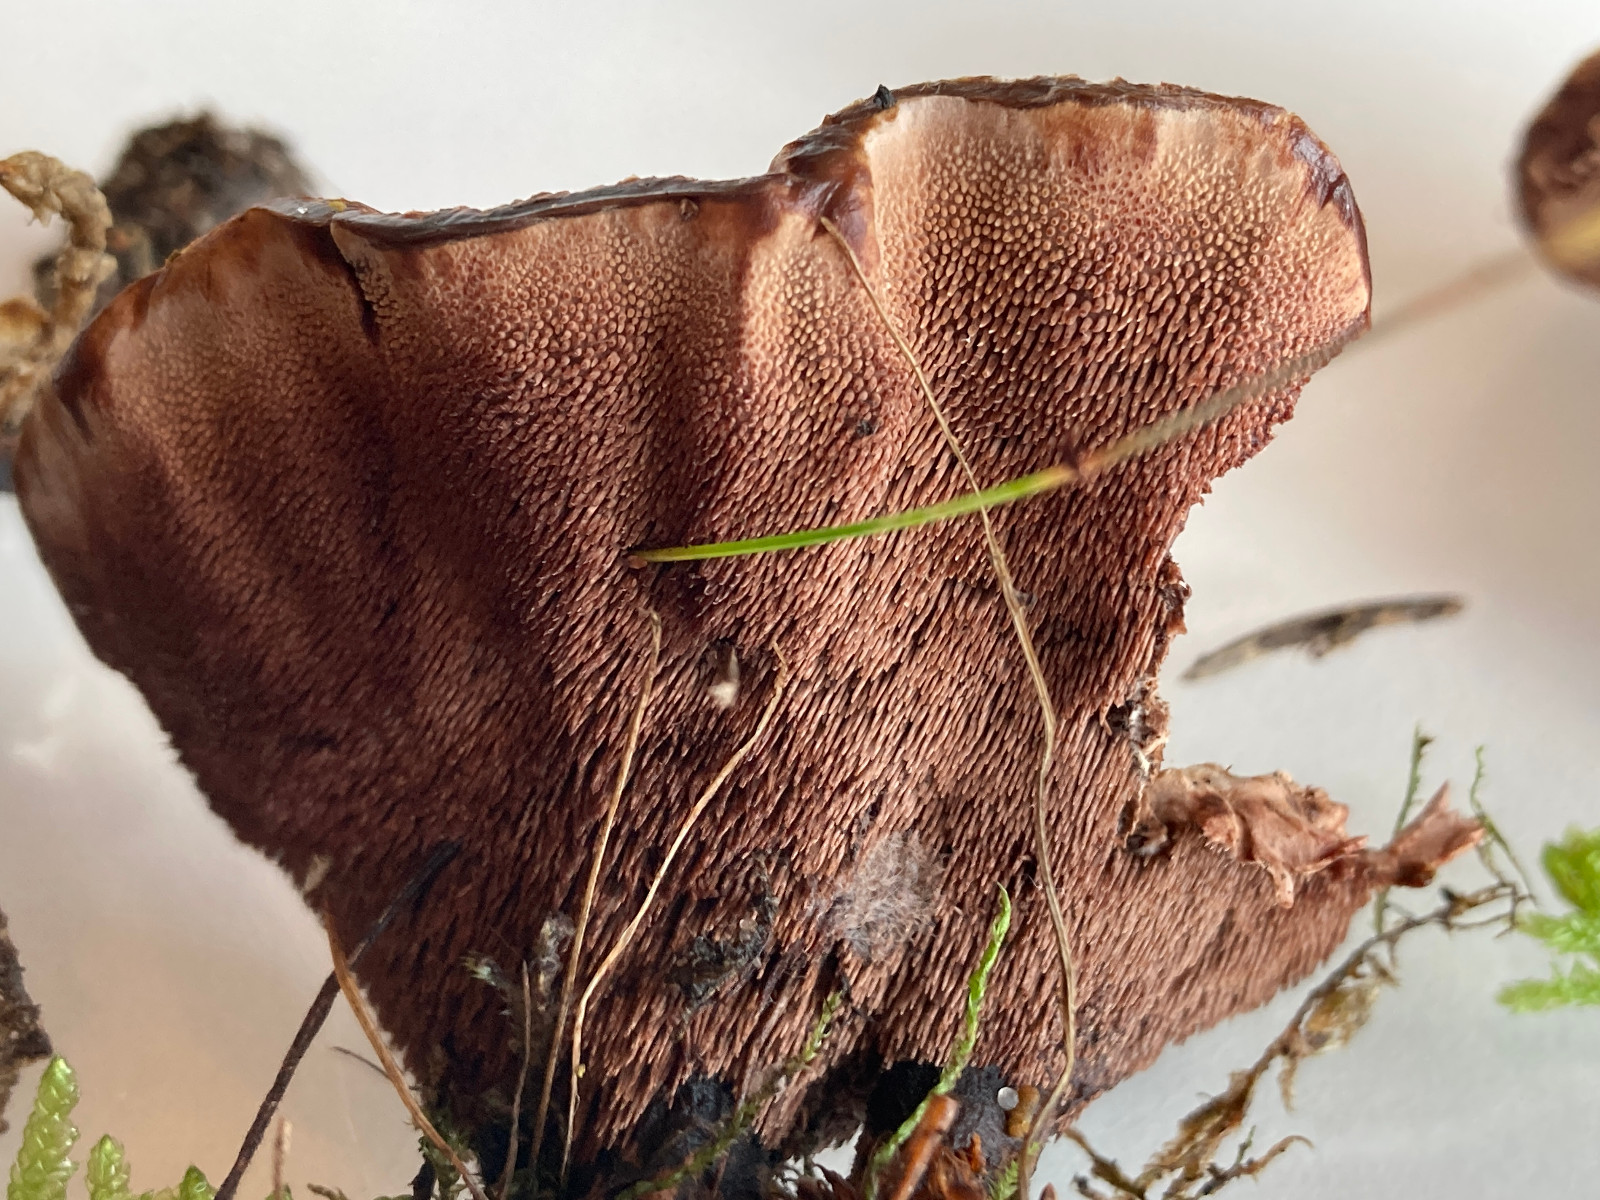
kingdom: Fungi
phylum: Basidiomycota
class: Agaricomycetes
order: Thelephorales
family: Bankeraceae
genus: Hydnellum
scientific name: Hydnellum concrescens
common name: Zoned tooth
